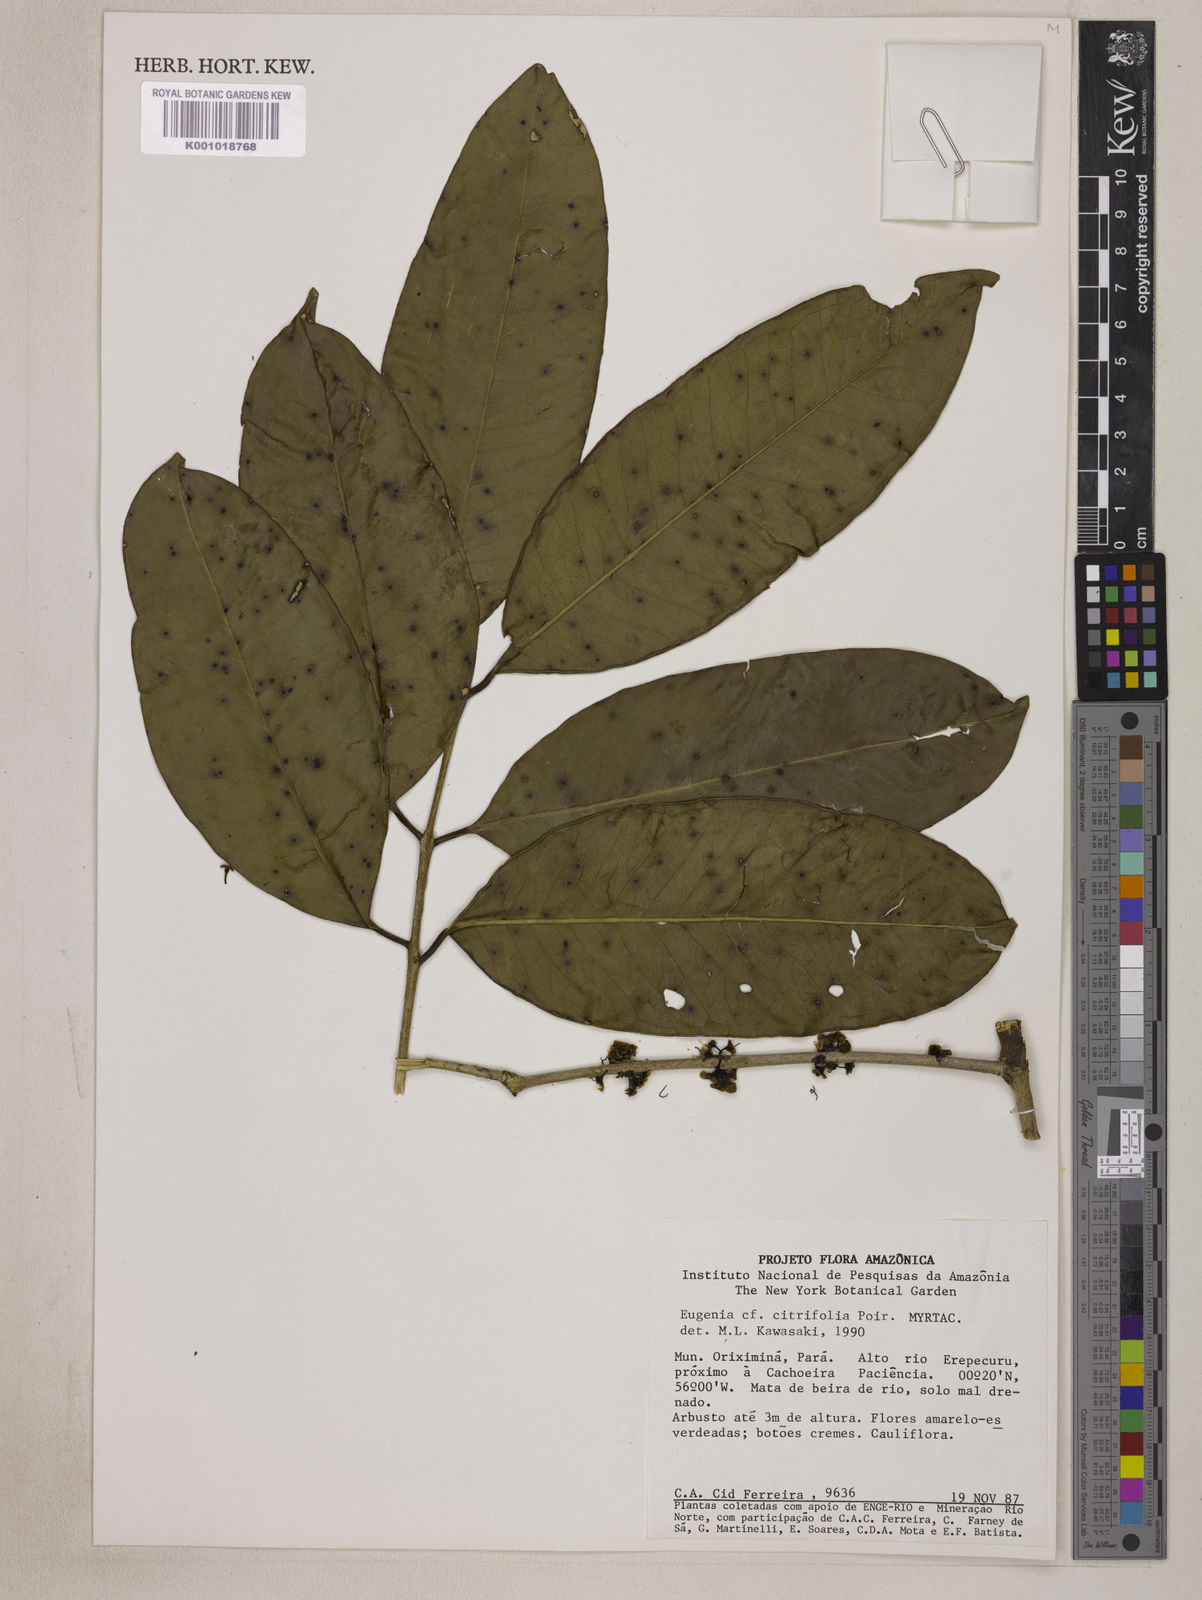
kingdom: Plantae
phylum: Tracheophyta
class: Magnoliopsida
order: Myrtales
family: Myrtaceae
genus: Eugenia
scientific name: Eugenia citrifolia
